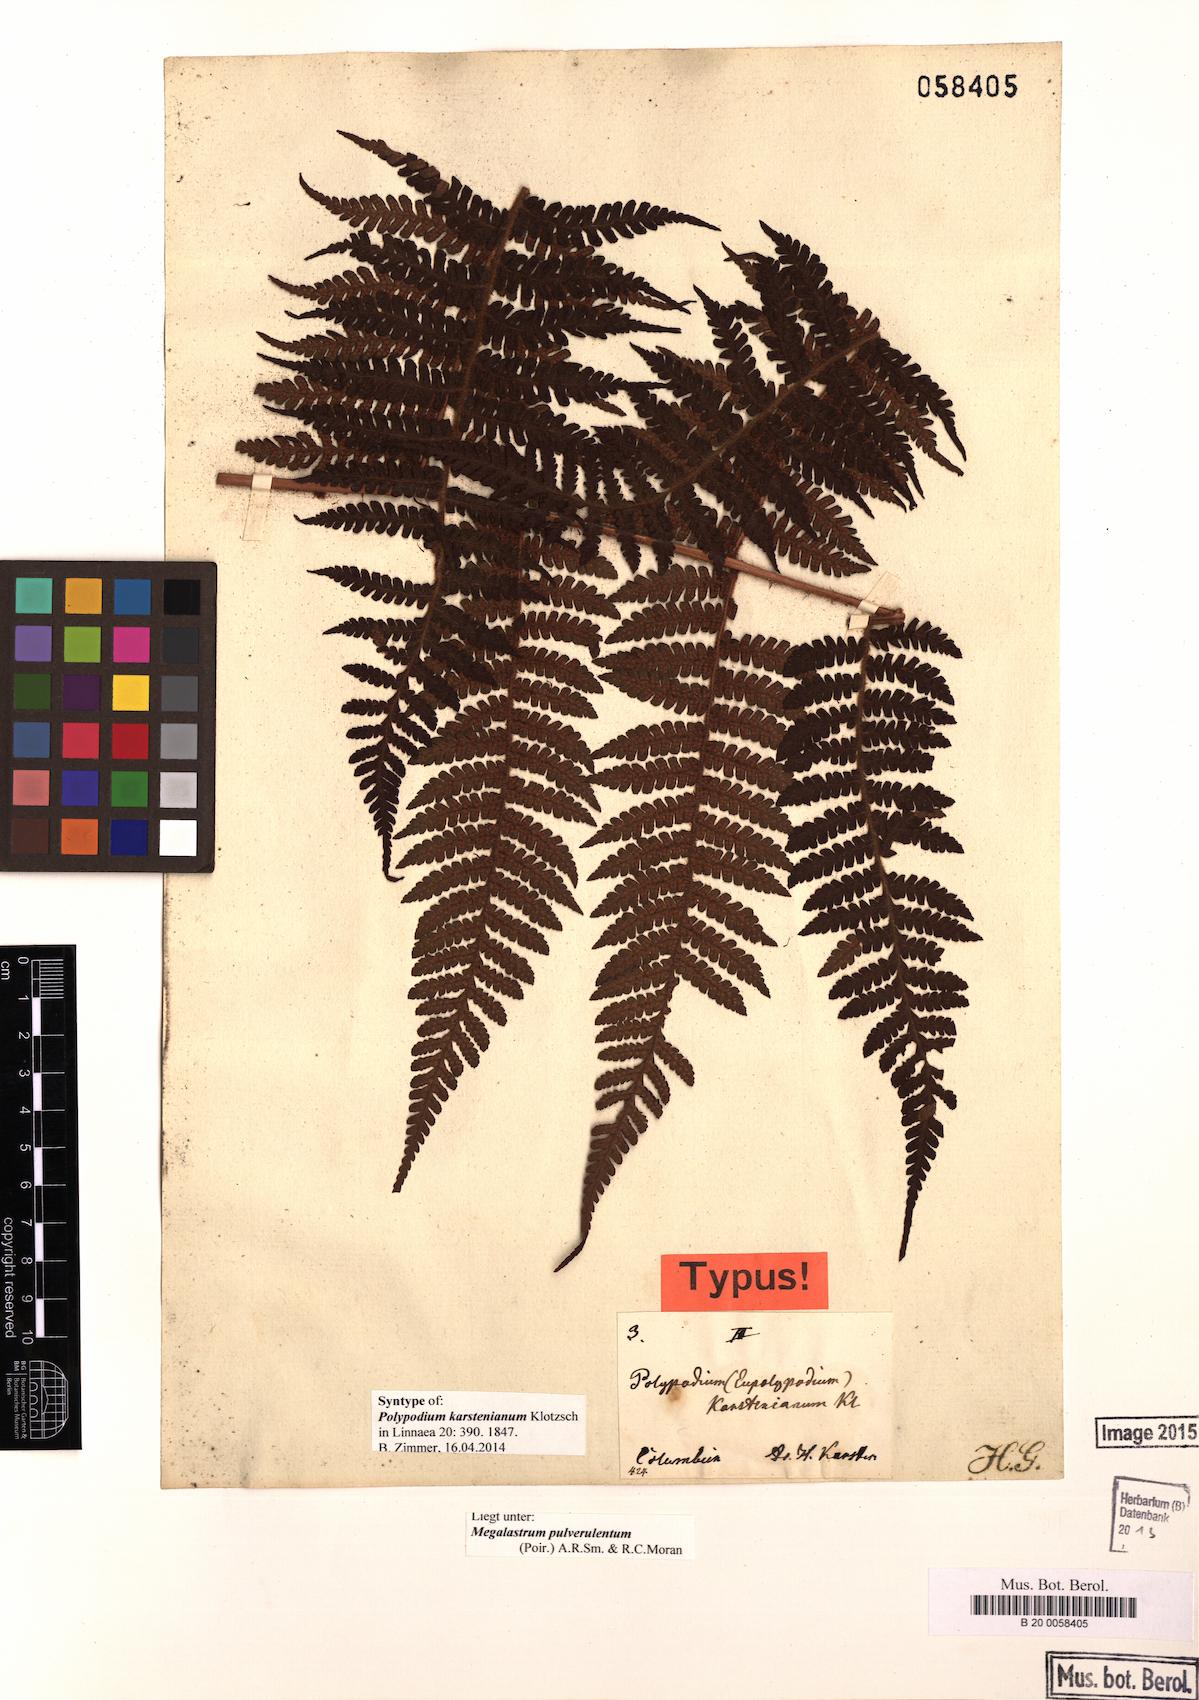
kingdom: Plantae
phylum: Tracheophyta
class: Polypodiopsida
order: Polypodiales
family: Dryopteridaceae
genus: Megalastrum
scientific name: Megalastrum pulverulentum
